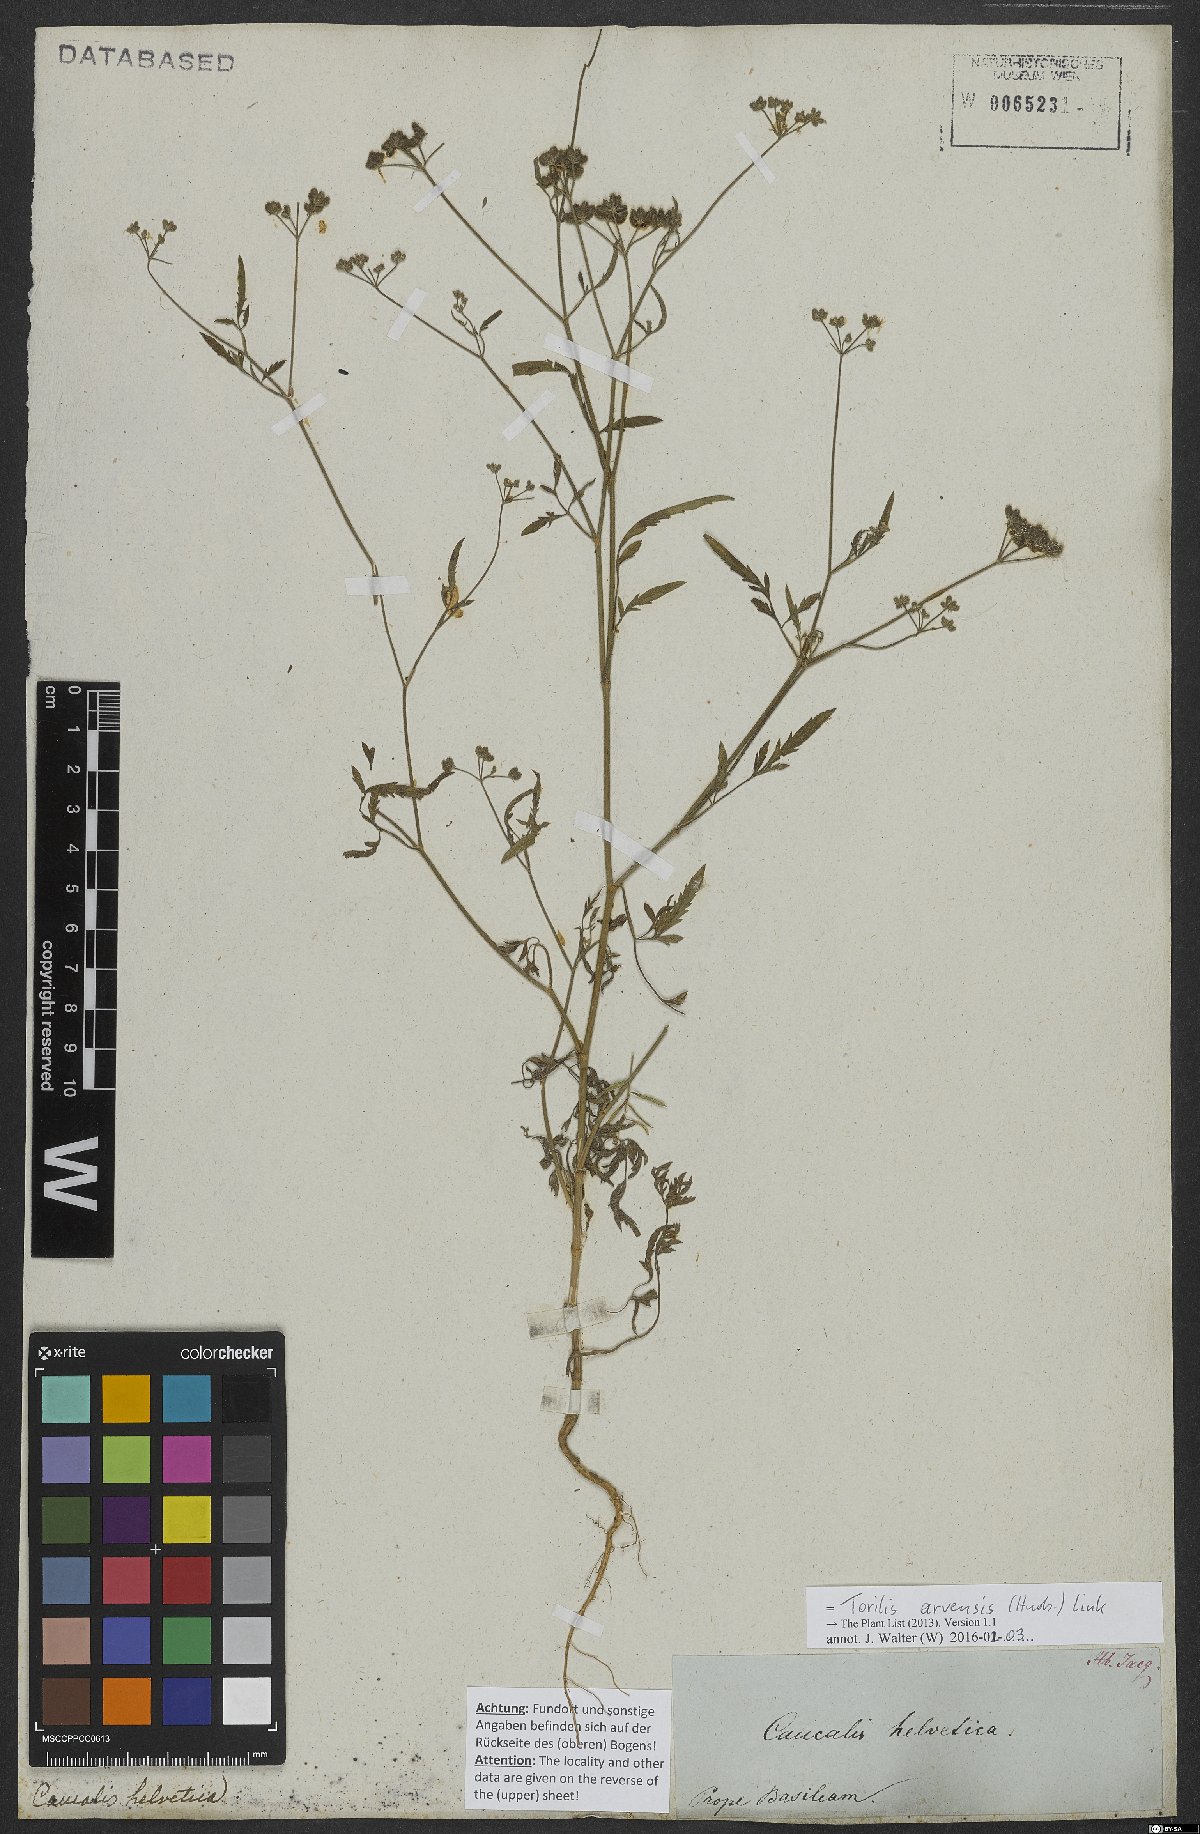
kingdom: Plantae
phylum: Tracheophyta
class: Magnoliopsida
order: Apiales
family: Apiaceae
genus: Torilis
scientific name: Torilis arvensis
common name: Spreading hedge-parsley
